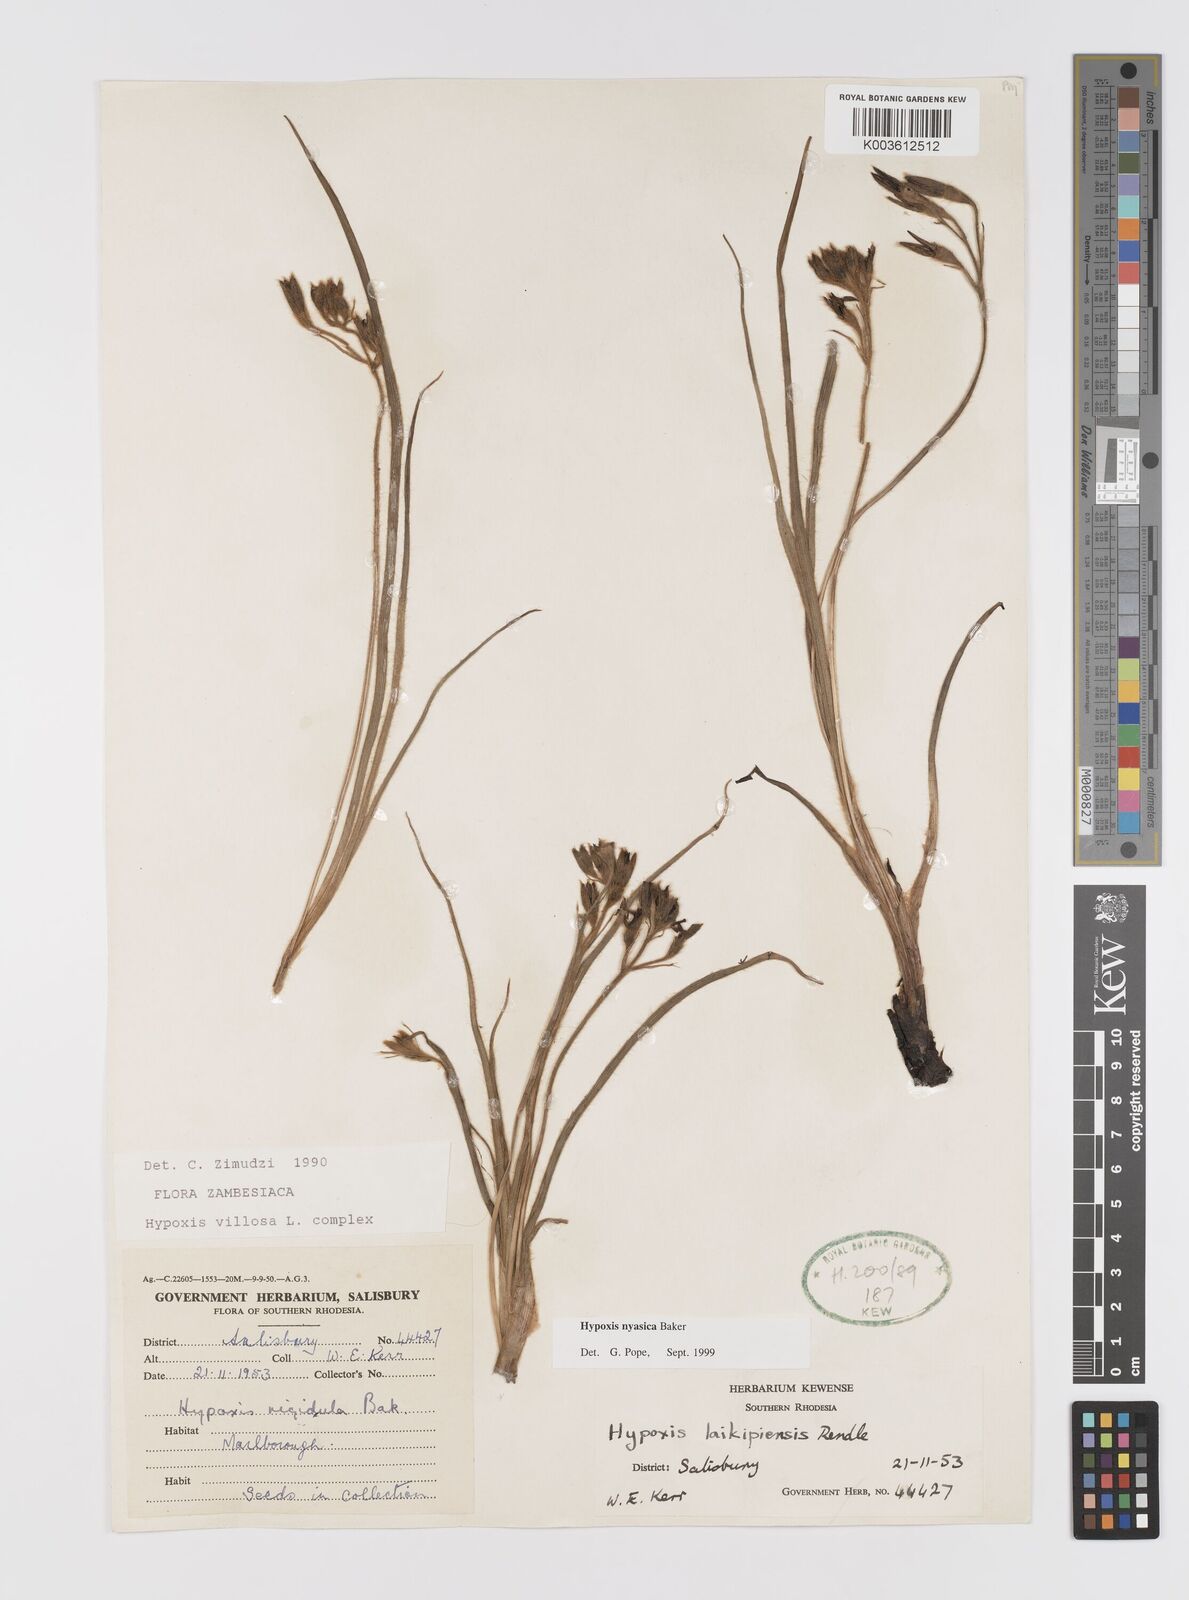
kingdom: Plantae
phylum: Tracheophyta
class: Liliopsida
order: Asparagales
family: Hypoxidaceae
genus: Hypoxis
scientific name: Hypoxis nyasica
